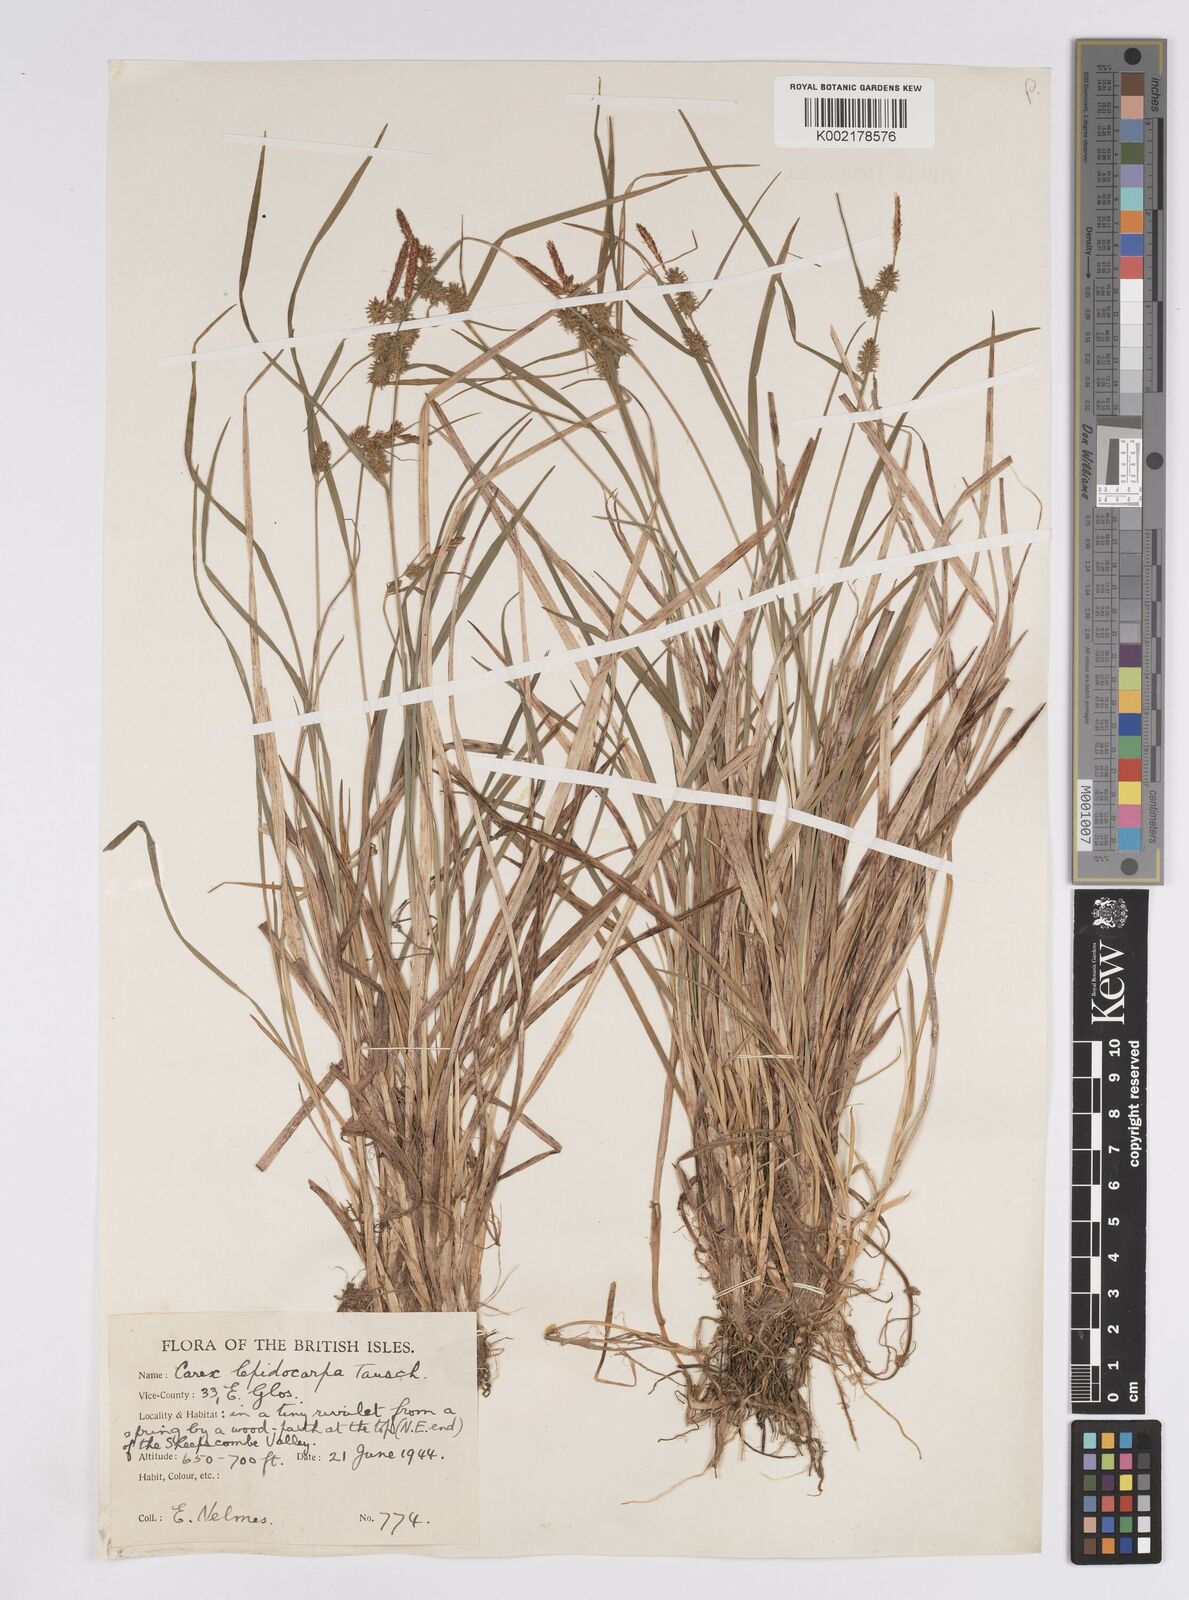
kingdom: Plantae
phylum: Tracheophyta
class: Liliopsida
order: Poales
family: Cyperaceae
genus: Carex
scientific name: Carex lepidocarpa
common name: Long-stalked yellow-sedge
